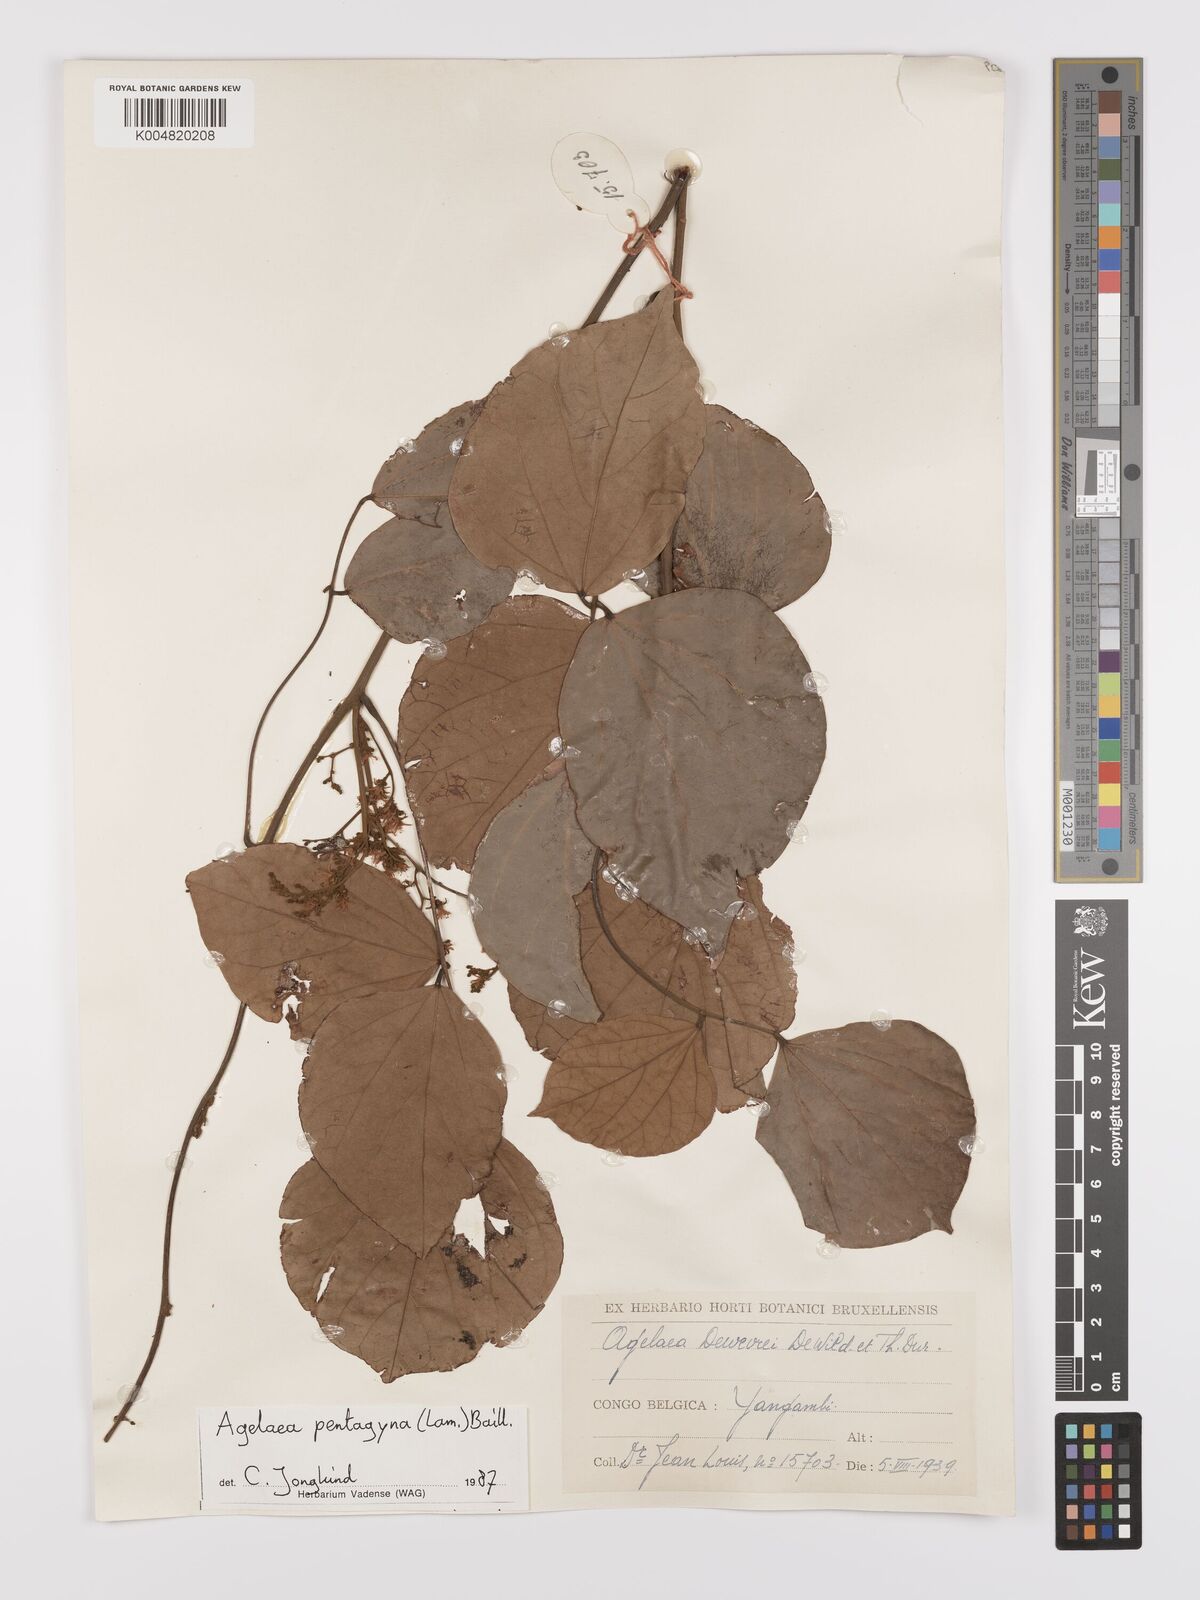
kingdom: Plantae
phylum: Tracheophyta
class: Magnoliopsida
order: Oxalidales
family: Connaraceae
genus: Agelaea
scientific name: Agelaea pentagyna
